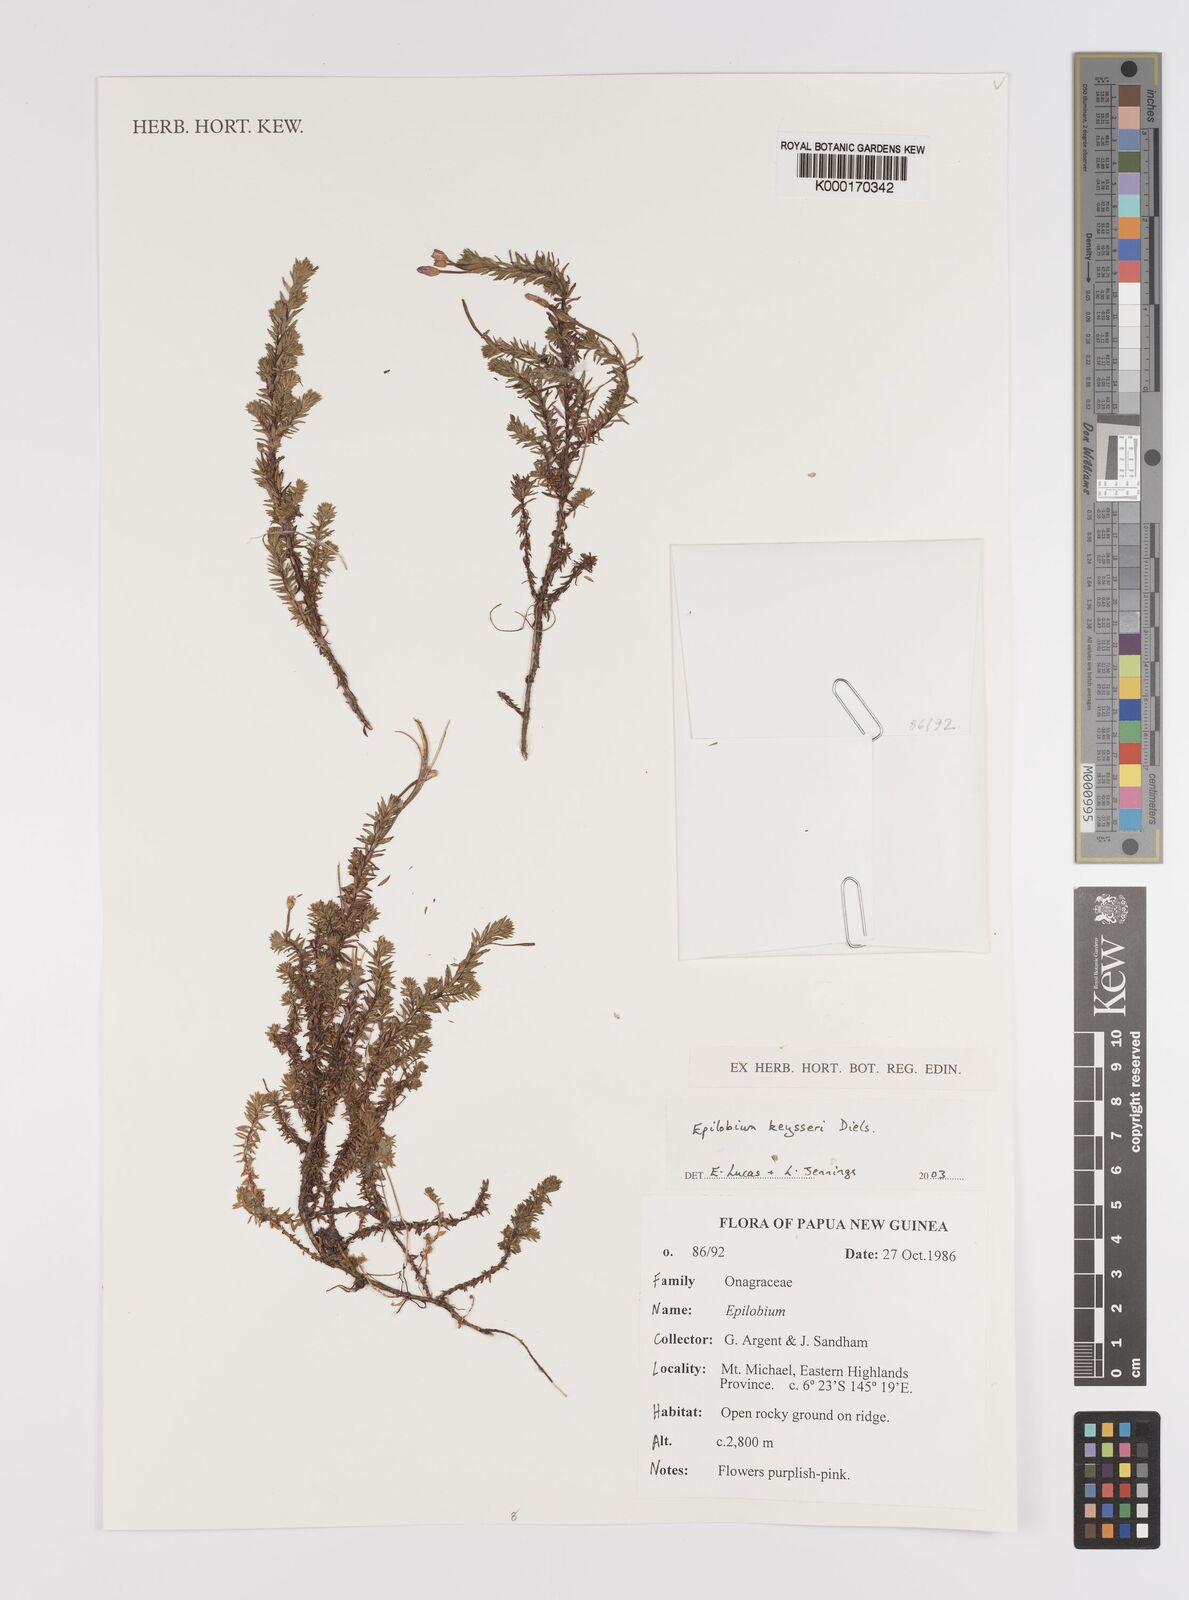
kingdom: Plantae
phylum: Tracheophyta
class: Magnoliopsida
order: Myrtales
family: Onagraceae
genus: Epilobium
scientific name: Epilobium keysseri
